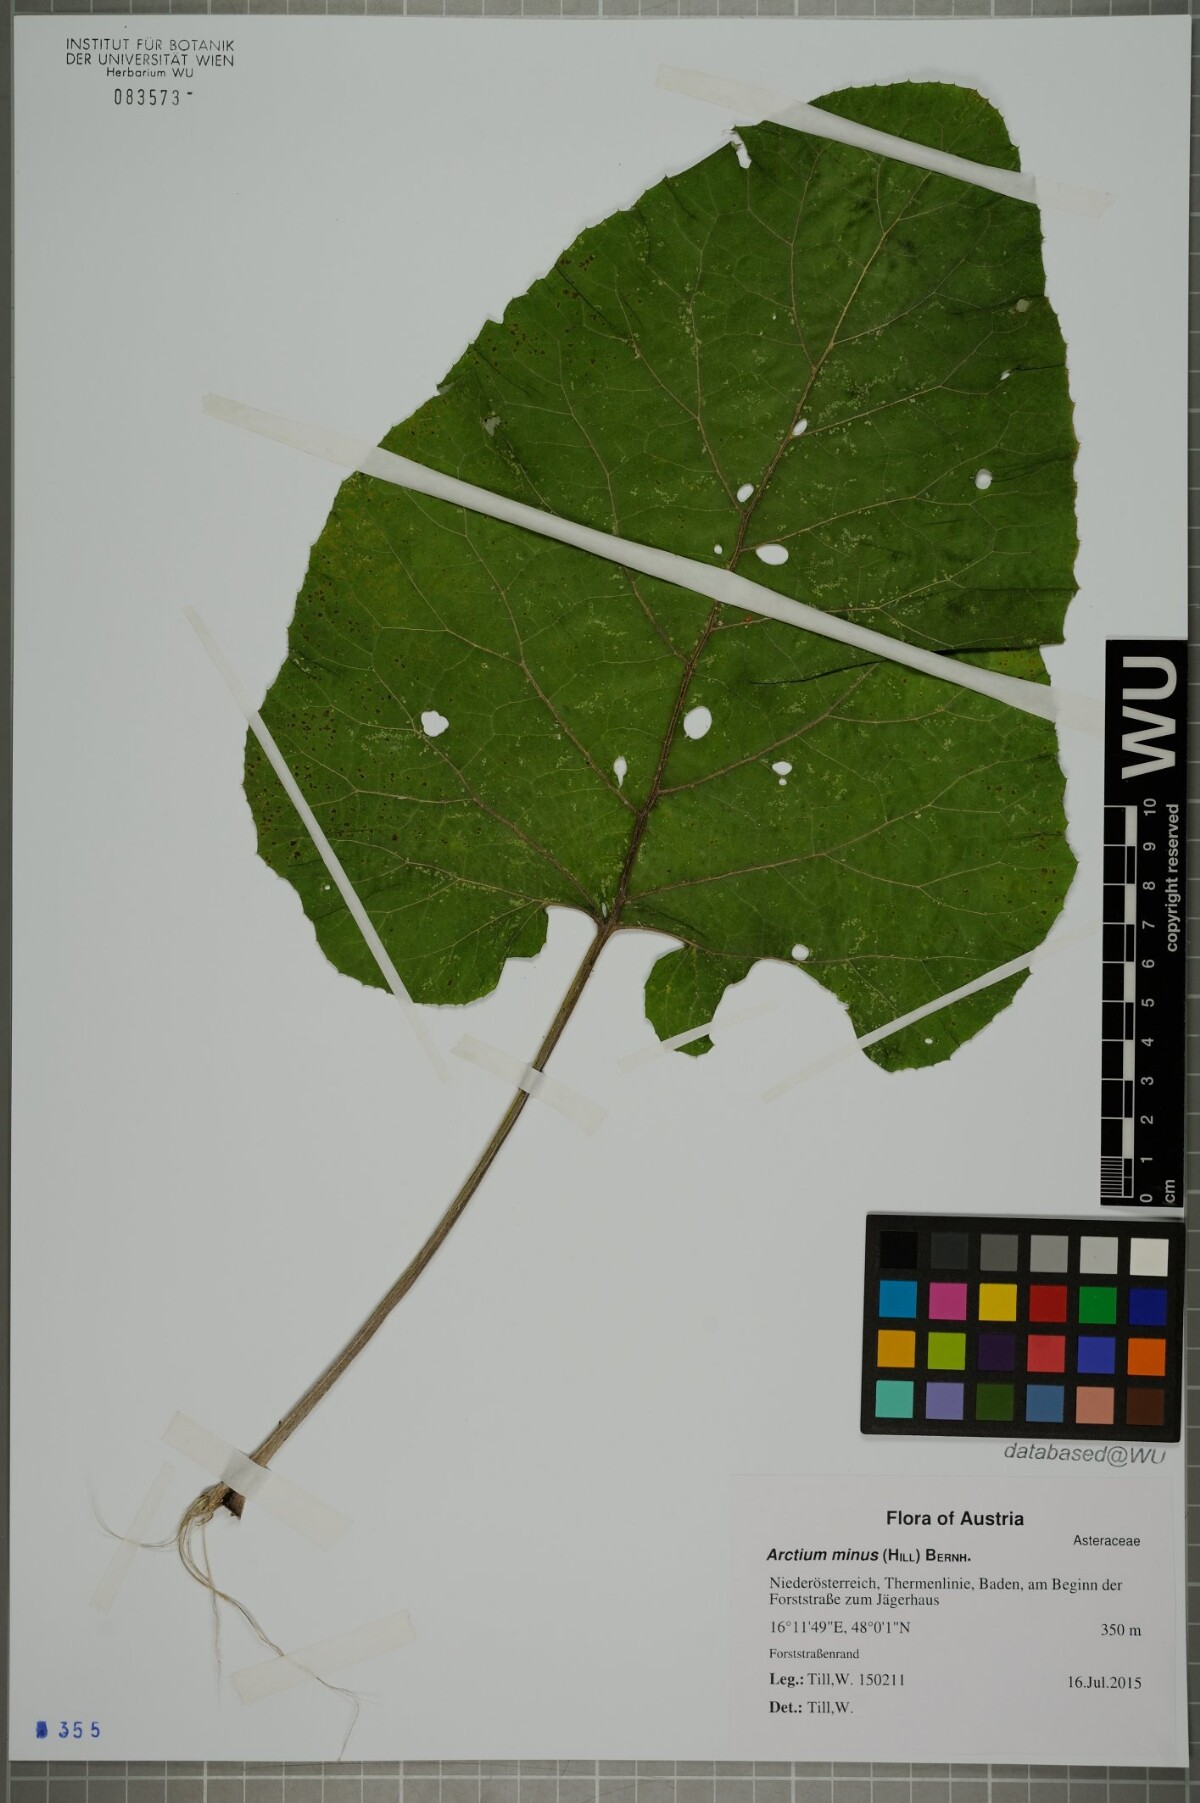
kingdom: Plantae
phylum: Tracheophyta
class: Magnoliopsida
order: Asterales
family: Asteraceae
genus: Arctium
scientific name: Arctium minus
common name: Lesser burdock
